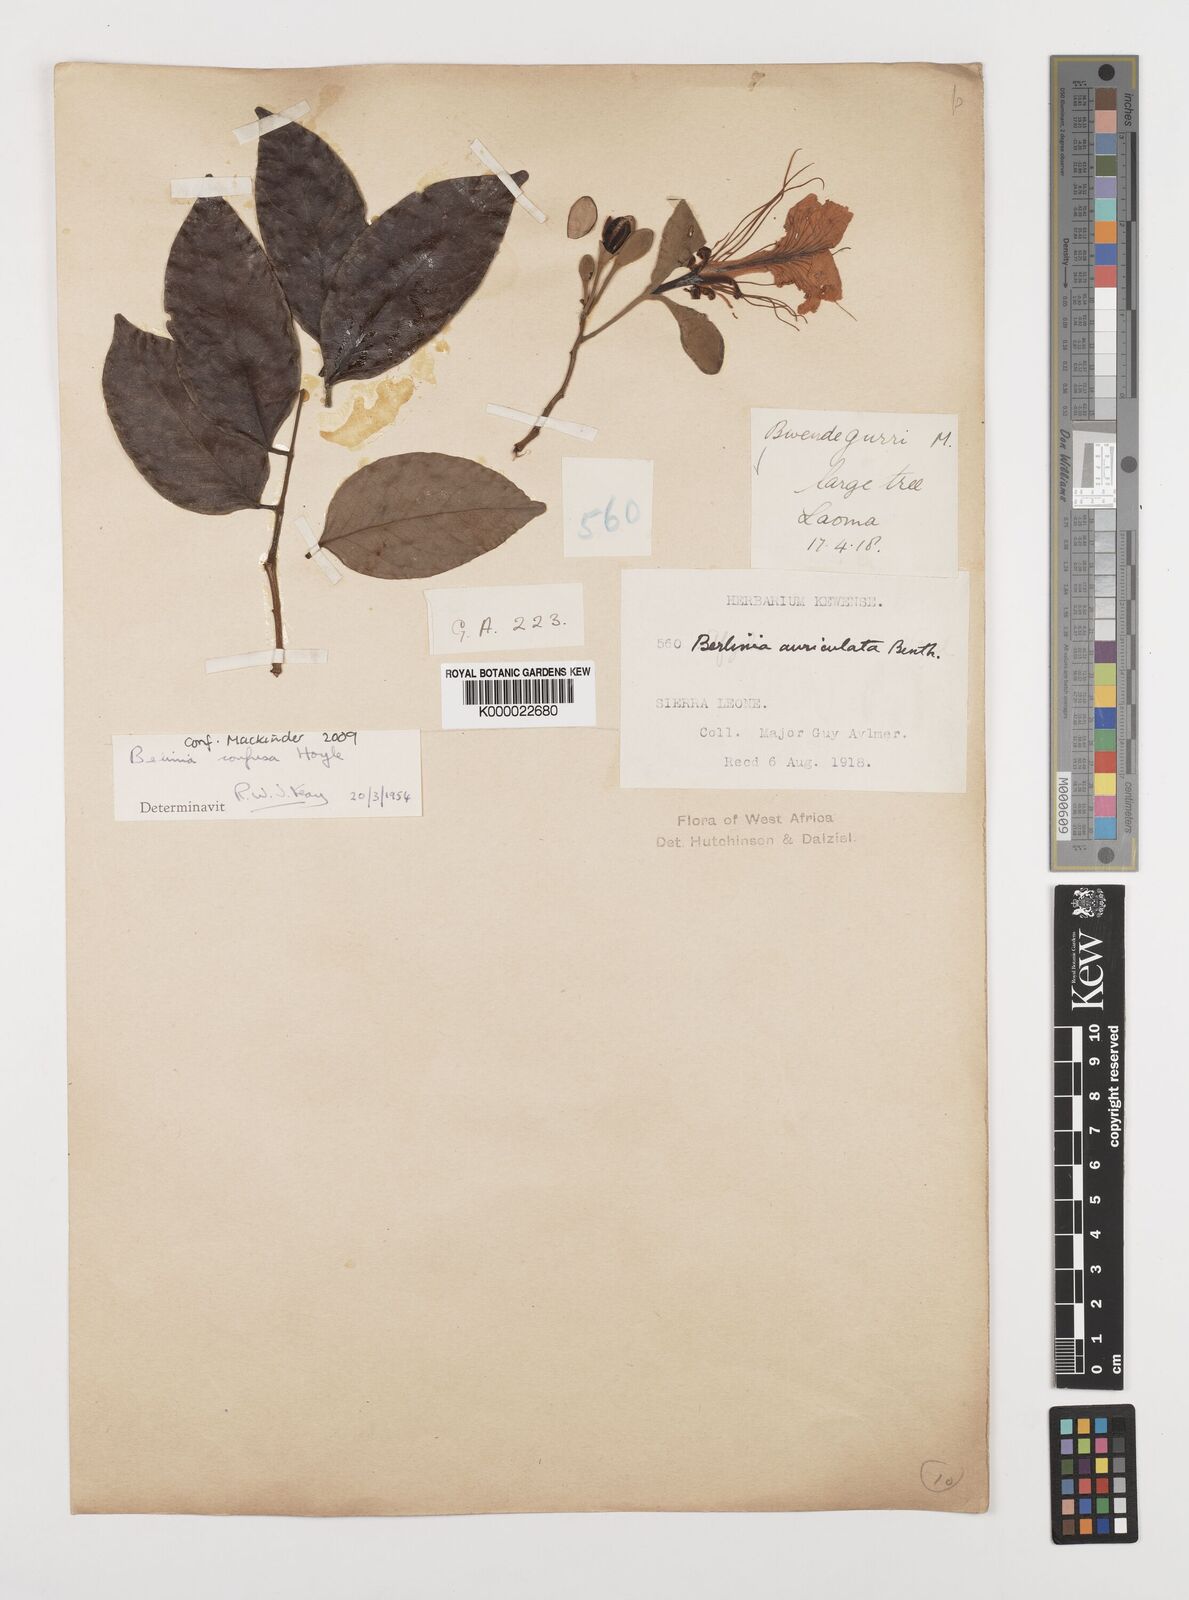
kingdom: Plantae
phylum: Tracheophyta
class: Magnoliopsida
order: Fabales
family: Fabaceae
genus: Berlinia
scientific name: Berlinia confusa
